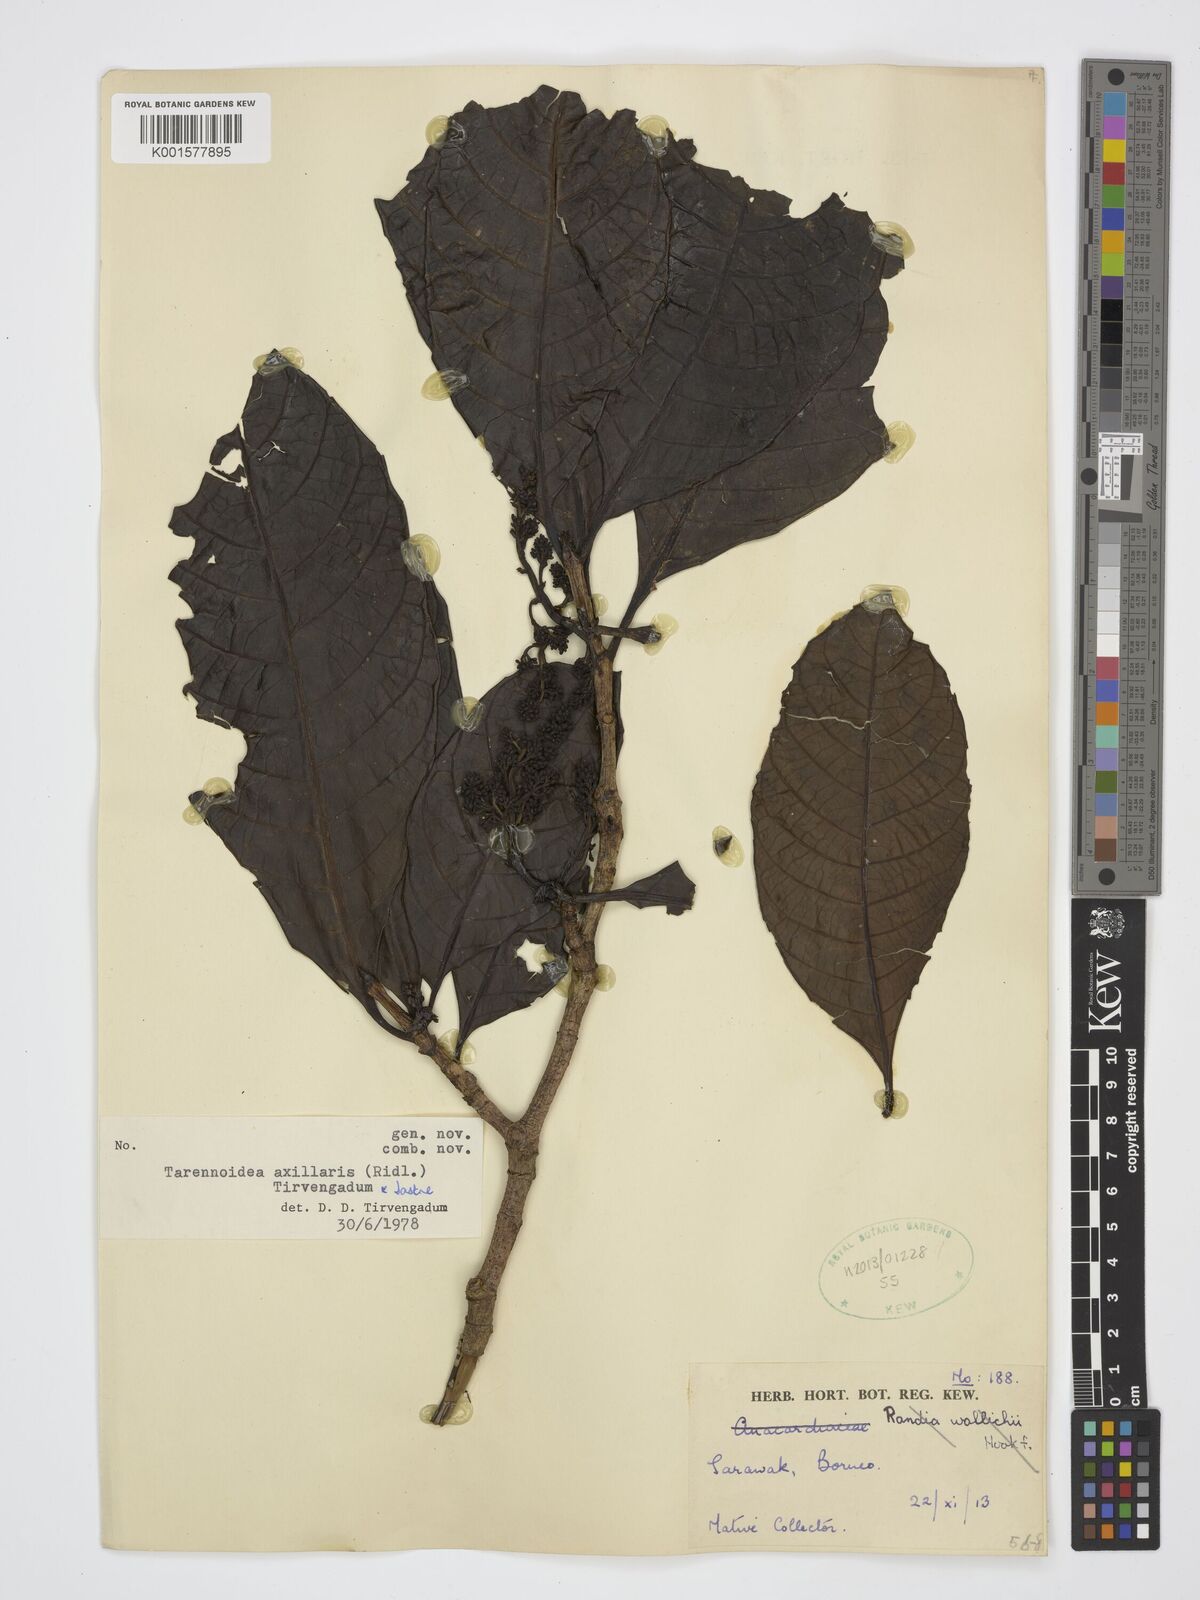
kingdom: Plantae
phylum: Tracheophyta
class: Magnoliopsida
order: Gentianales
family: Rubiaceae
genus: Tarennoidea
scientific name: Tarennoidea axillaris
